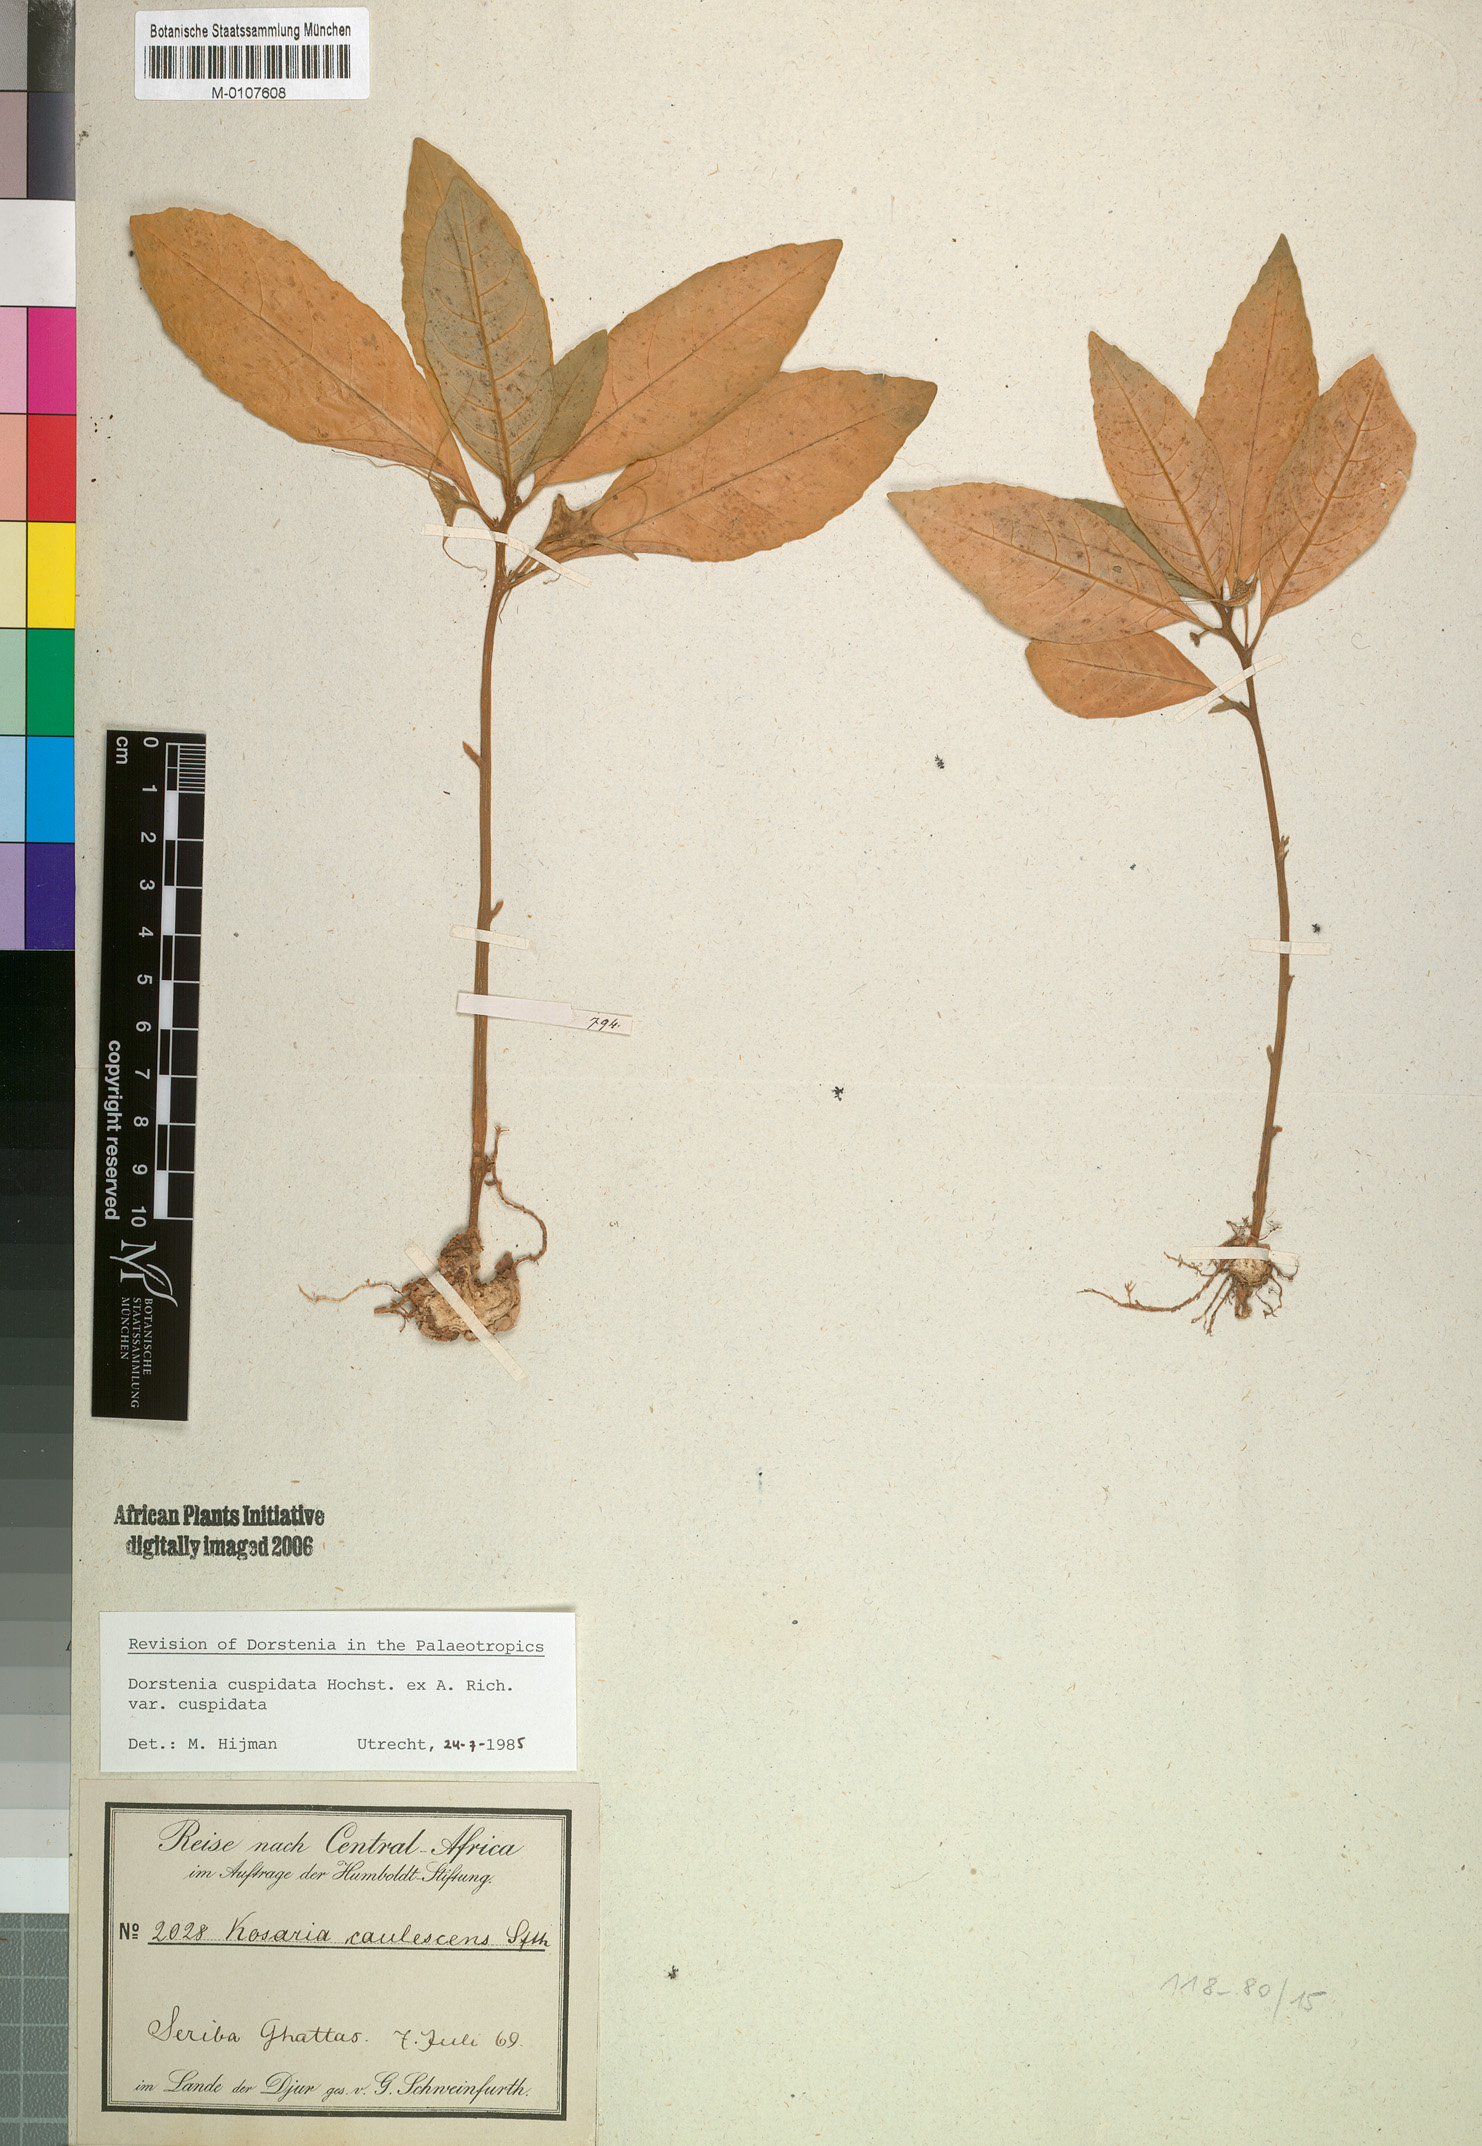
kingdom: Plantae
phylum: Tracheophyta
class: Magnoliopsida
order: Rosales
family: Moraceae
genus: Dorstenia
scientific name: Dorstenia cuspidata
